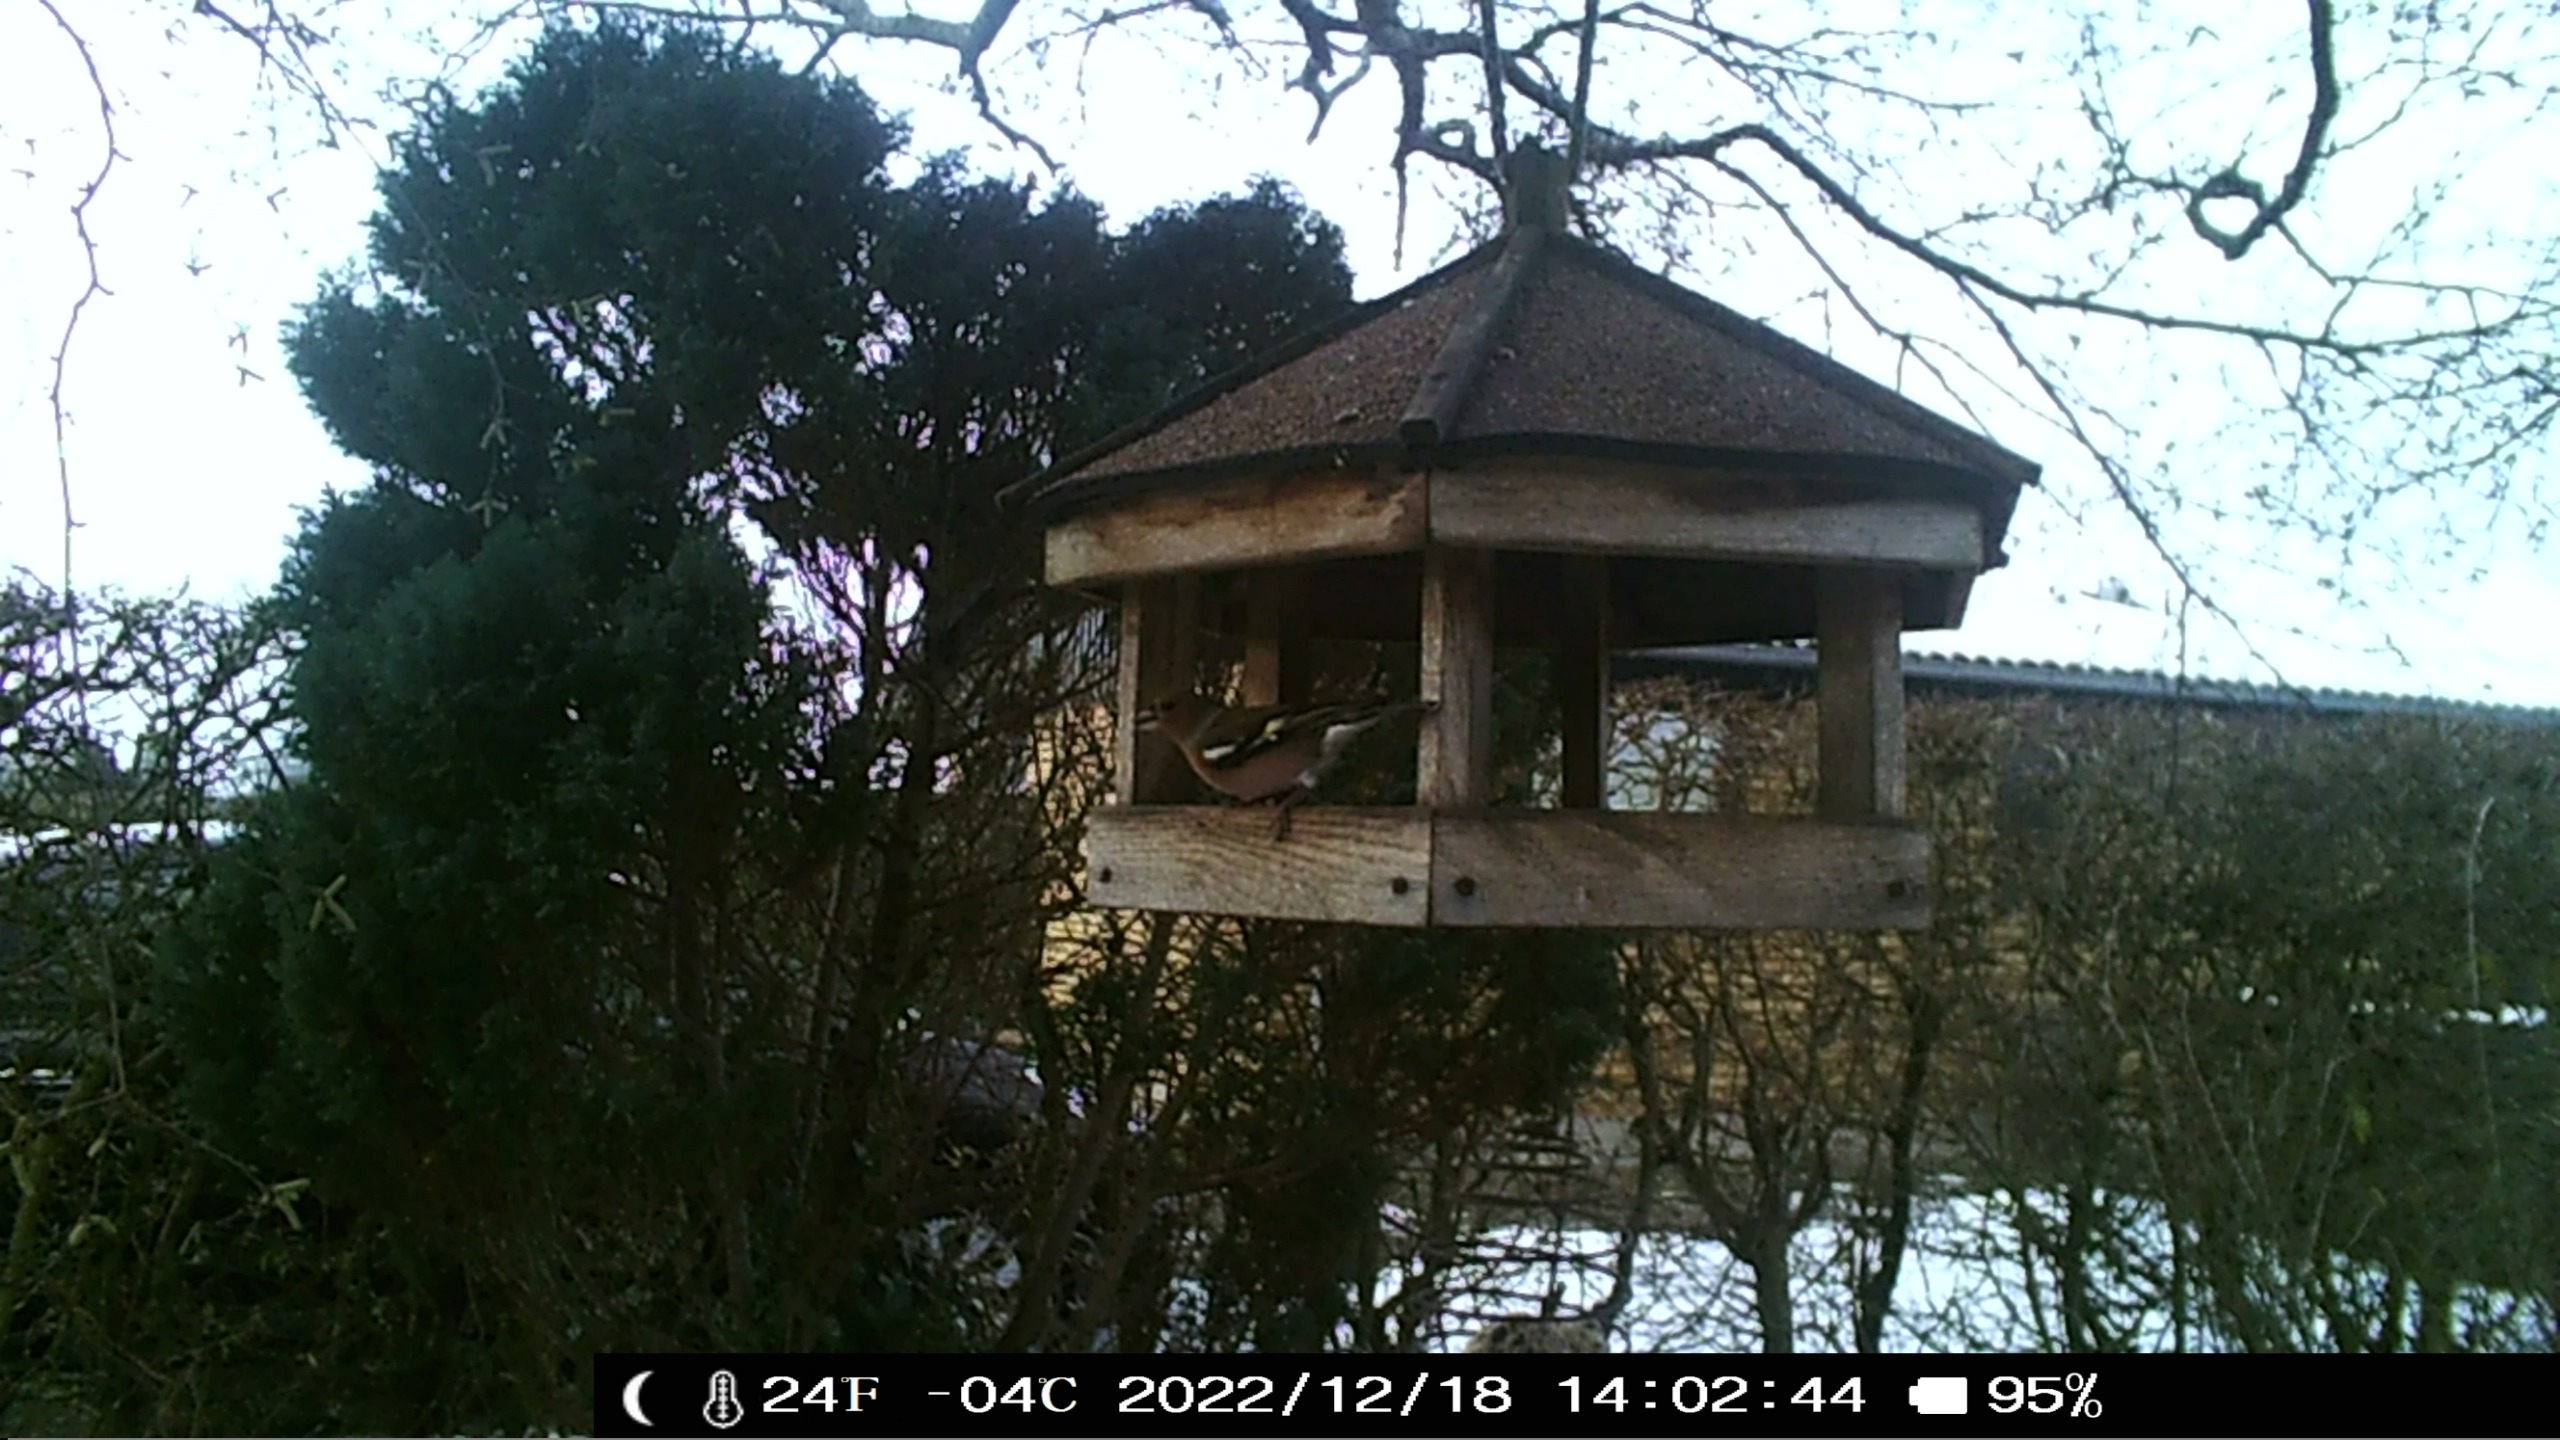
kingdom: Animalia
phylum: Chordata
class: Aves
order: Passeriformes
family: Fringillidae
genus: Fringilla
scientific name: Fringilla coelebs
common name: Bogfinke
